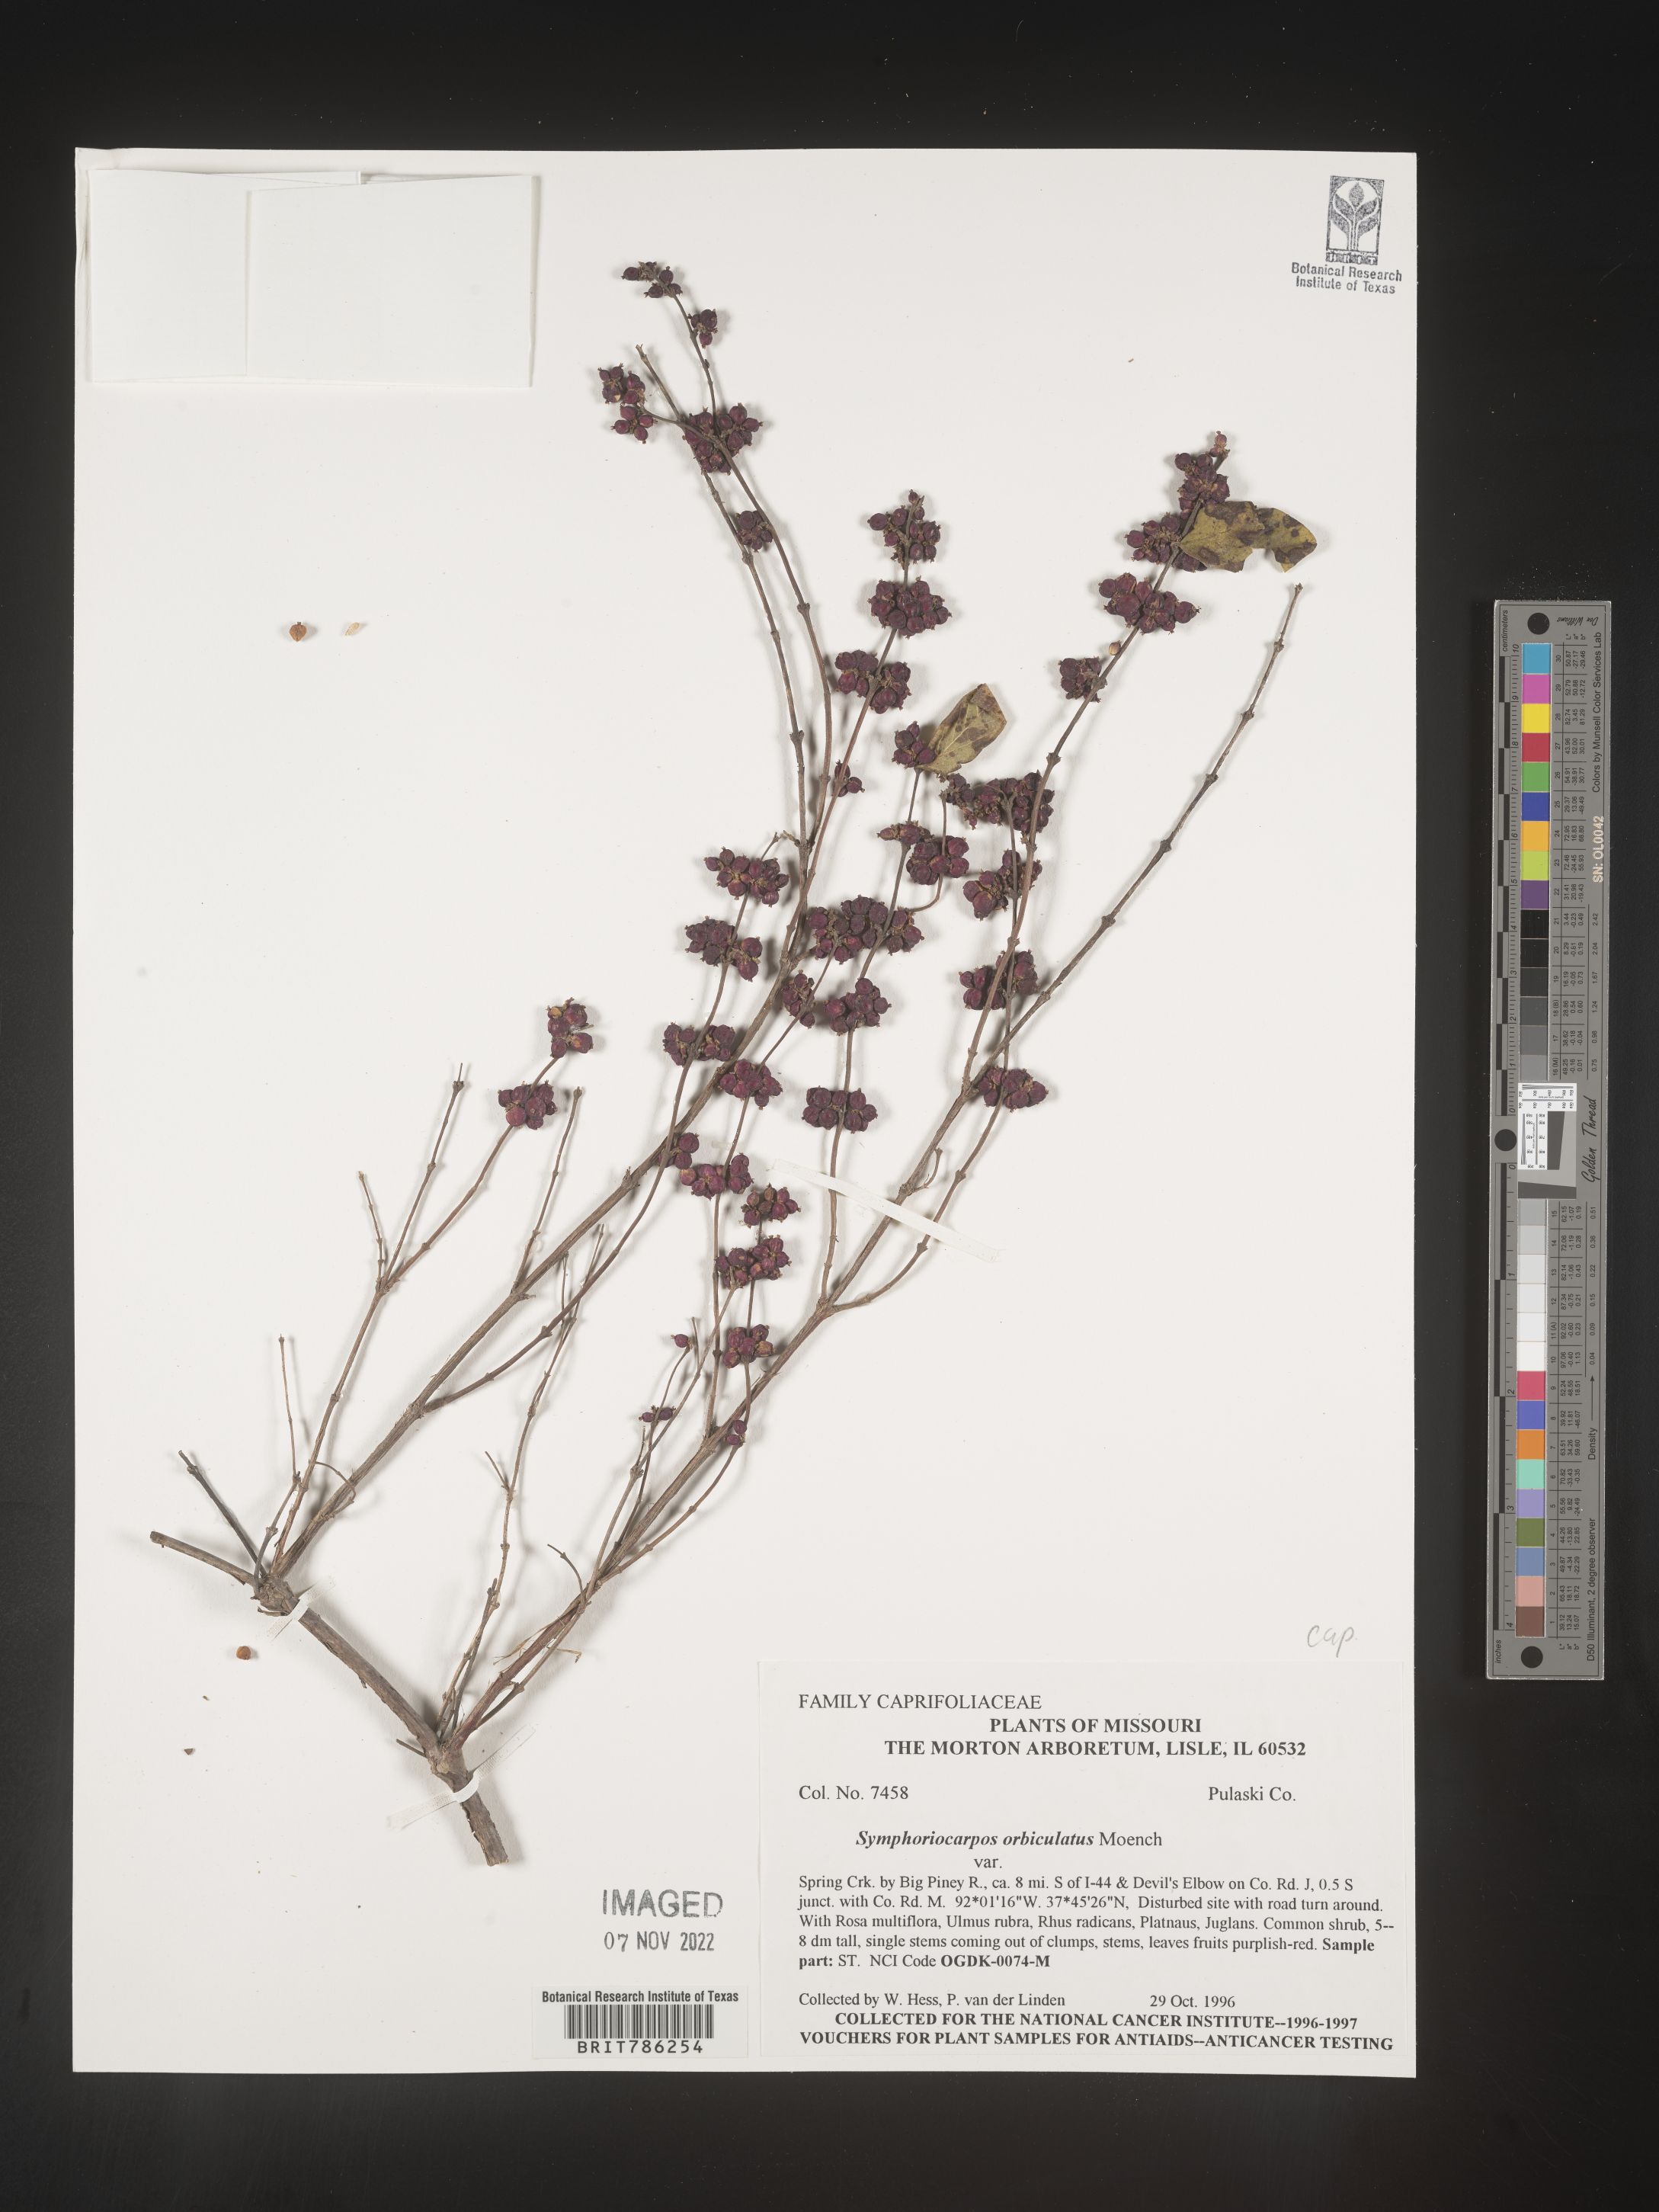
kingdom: Plantae
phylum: Tracheophyta
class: Magnoliopsida
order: Dipsacales
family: Caprifoliaceae
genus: Symphoricarpos
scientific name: Symphoricarpos orbiculatus
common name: Coralberry
